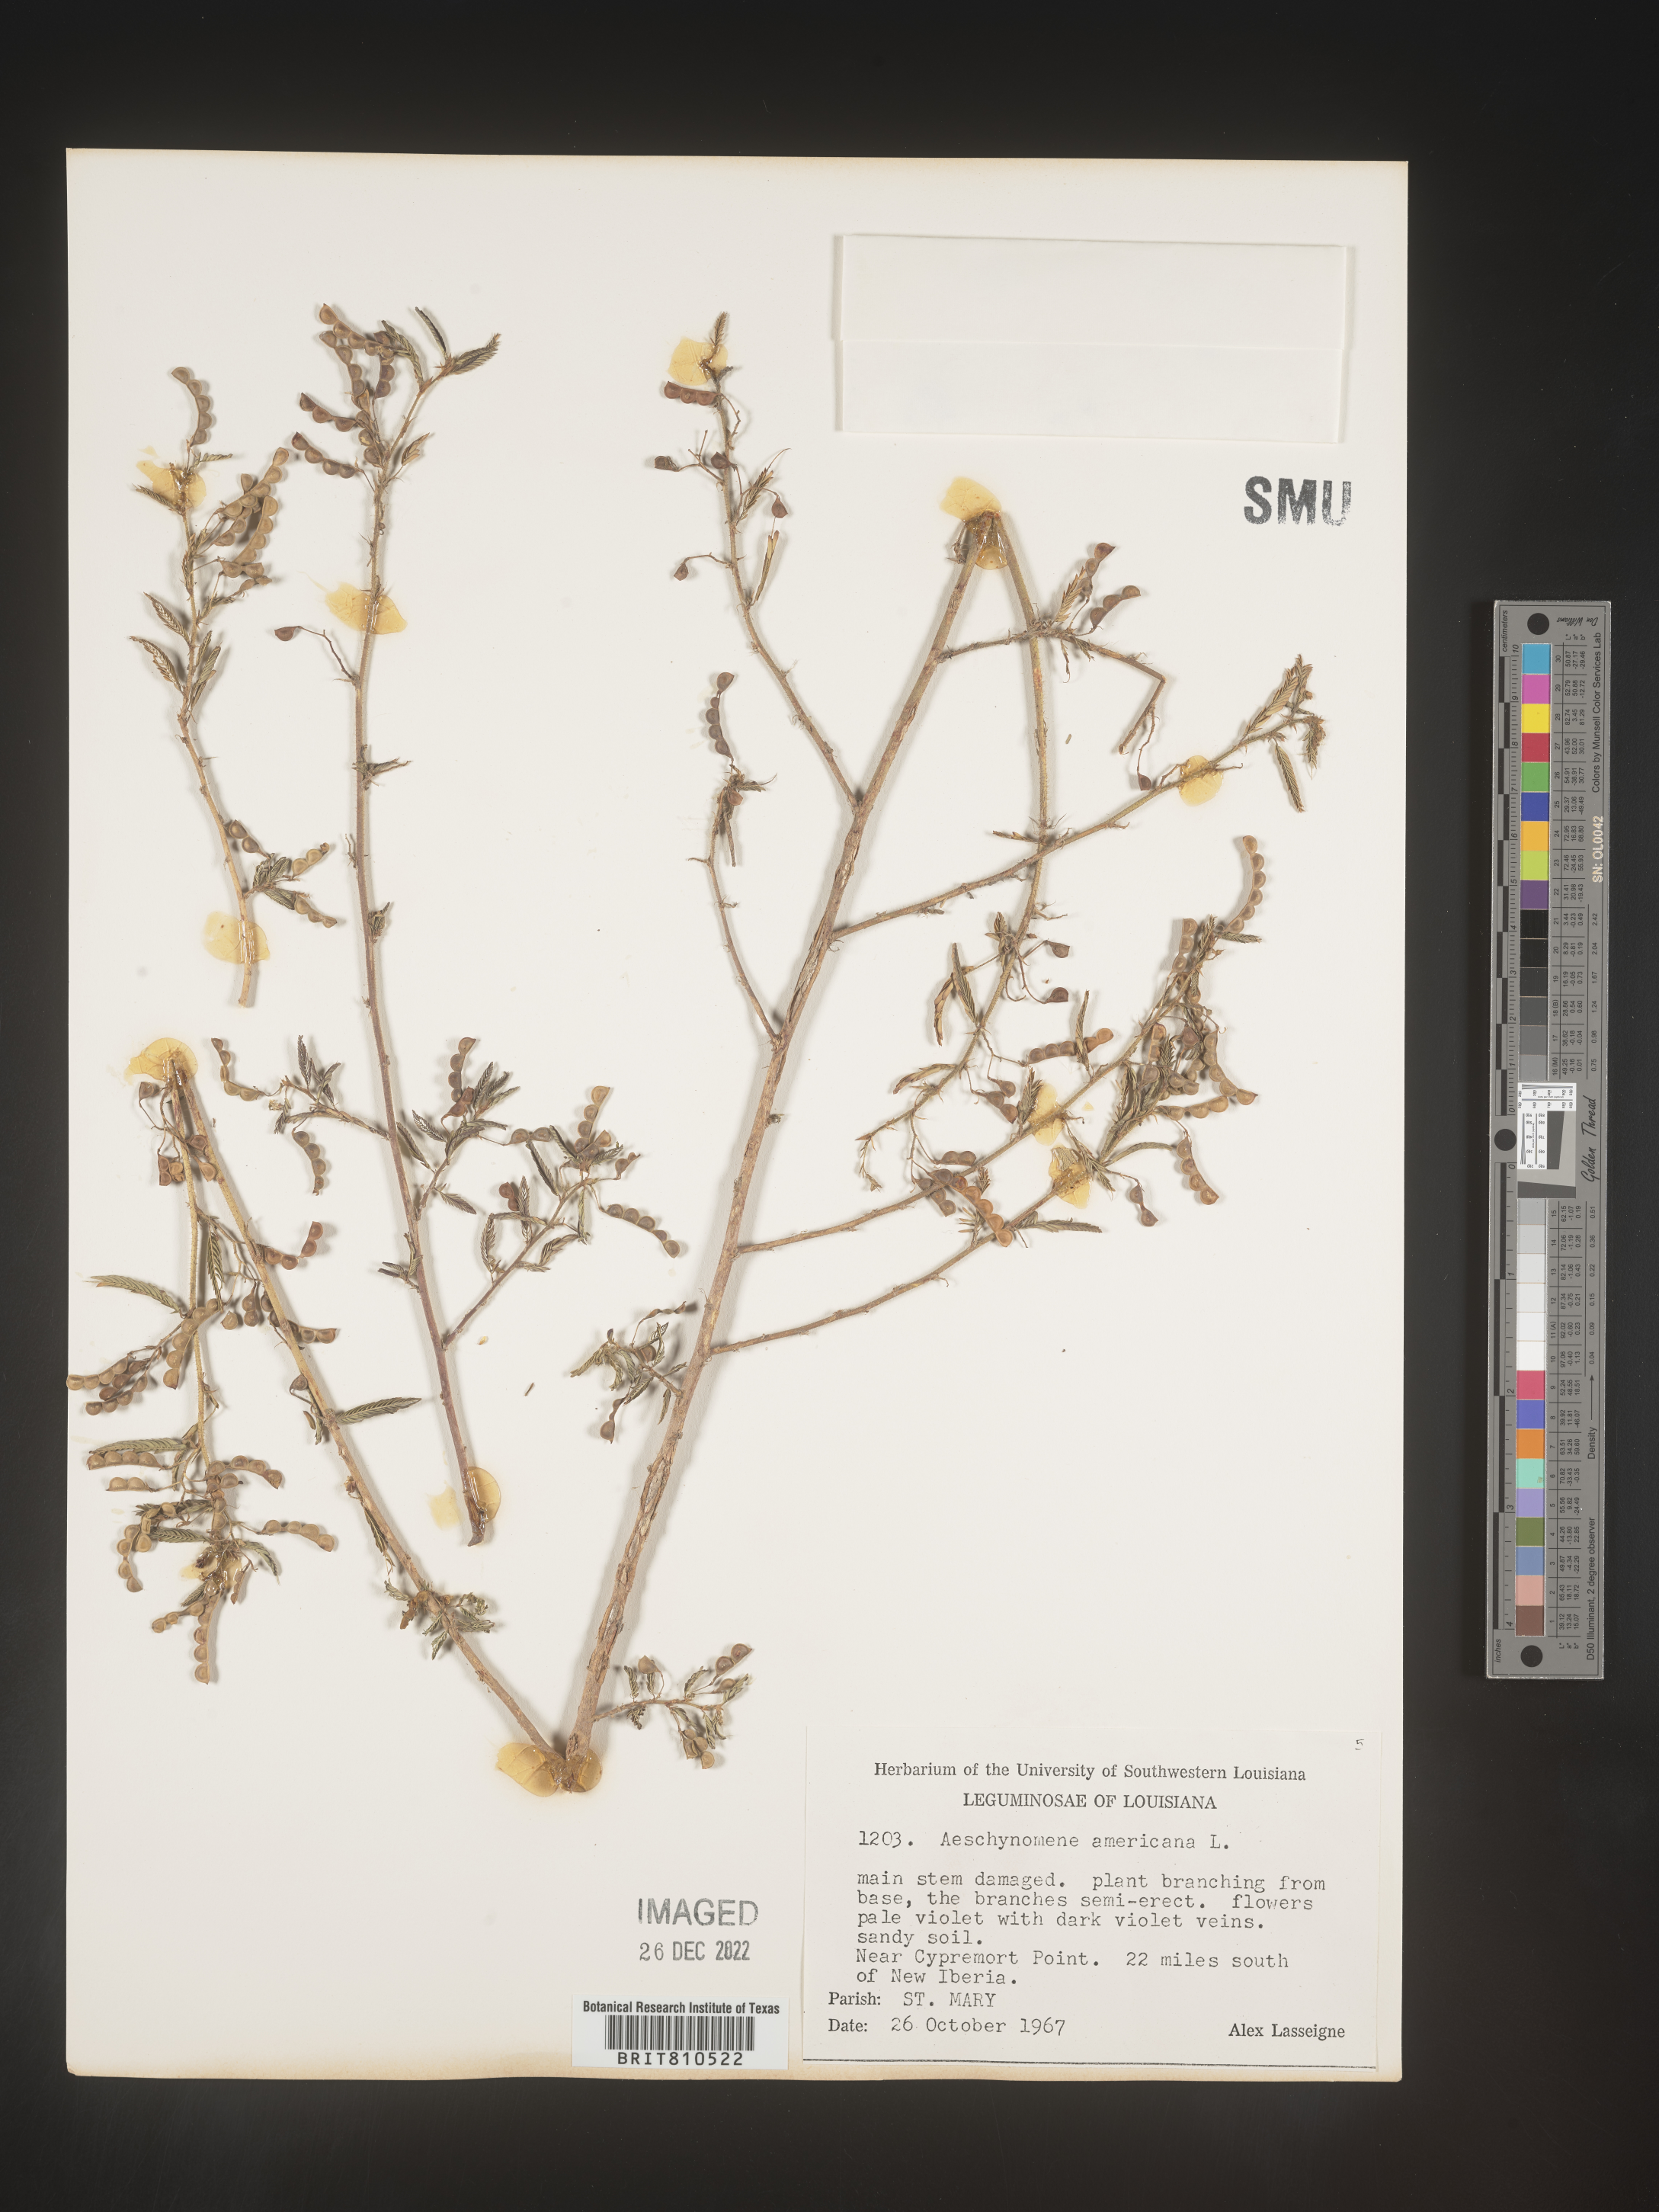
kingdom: Plantae
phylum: Tracheophyta
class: Magnoliopsida
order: Fabales
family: Fabaceae
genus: Aeschynomene
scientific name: Aeschynomene americana
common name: Joint-vetch
